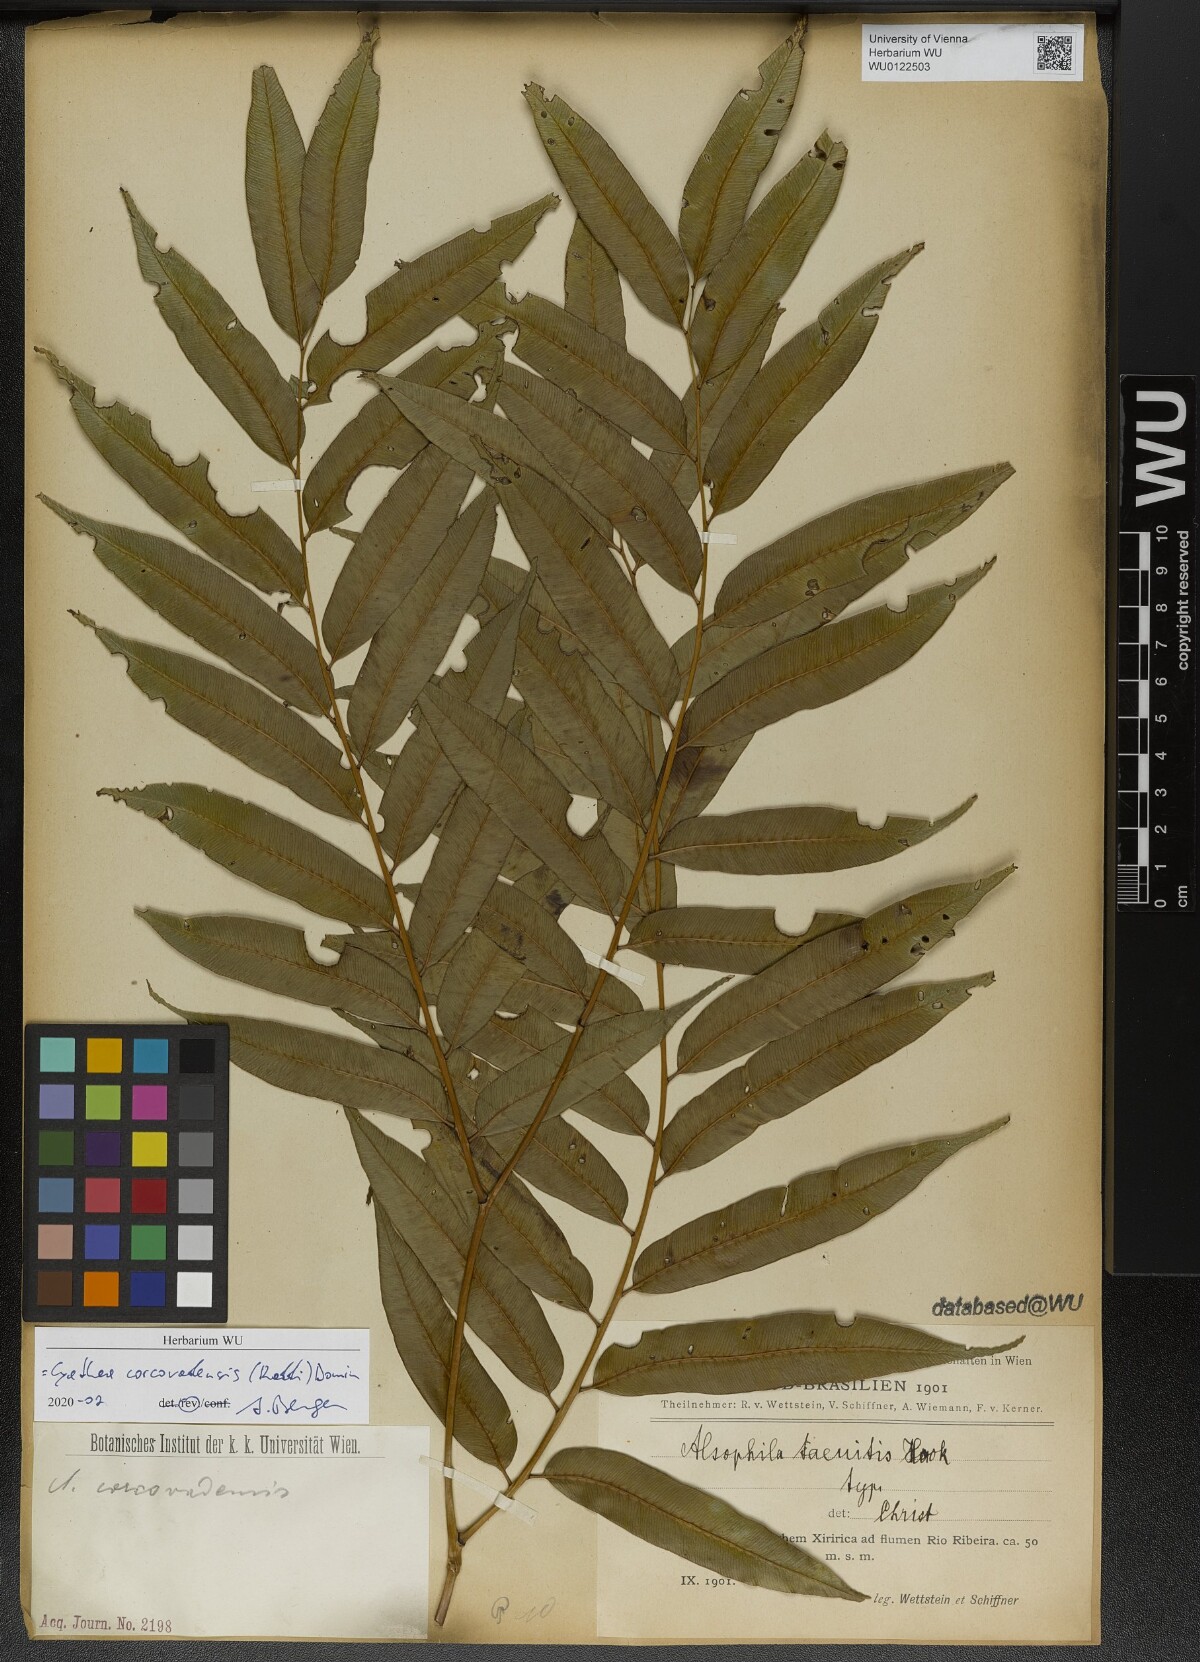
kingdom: Plantae
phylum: Tracheophyta
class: Polypodiopsida
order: Cyatheales
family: Cyatheaceae
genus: Cyathea
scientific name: Cyathea corcovadensis
